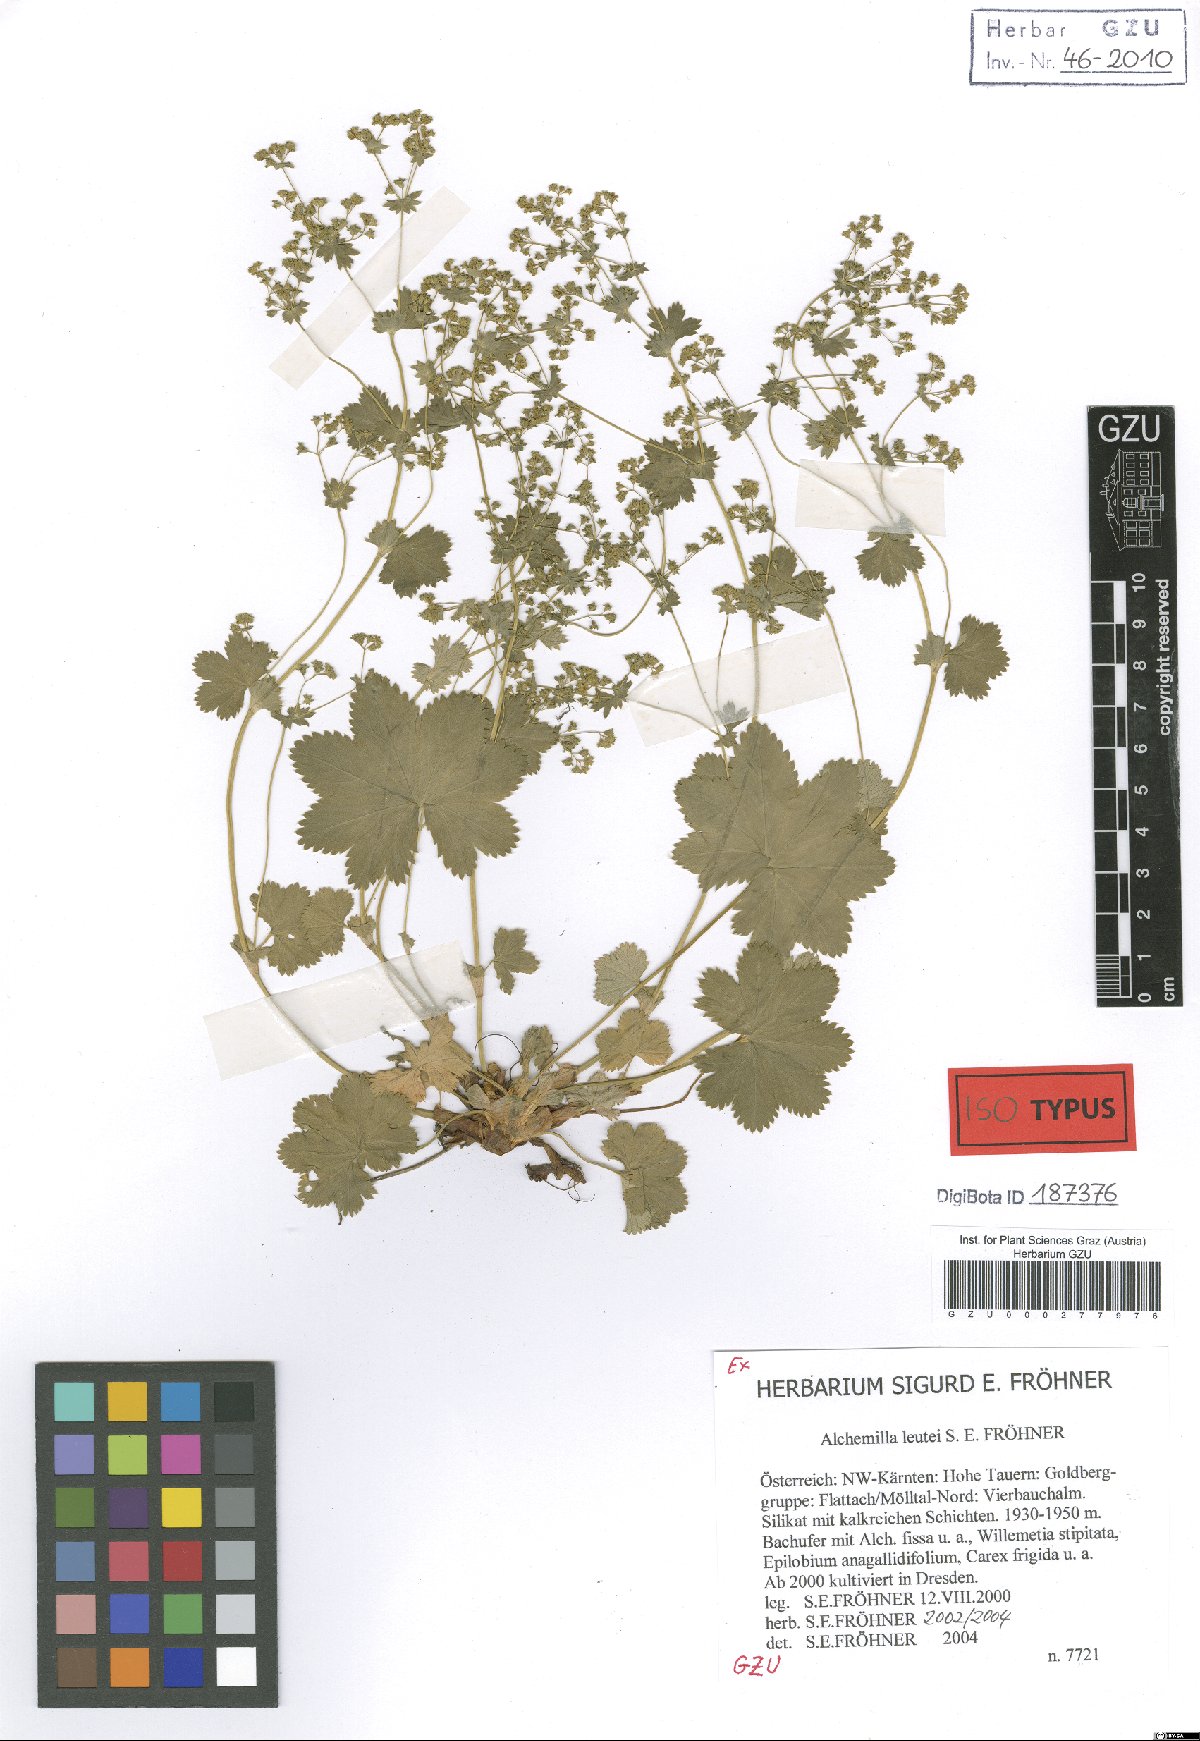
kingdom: Plantae
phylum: Tracheophyta
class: Magnoliopsida
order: Rosales
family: Rosaceae
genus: Alchemilla
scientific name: Alchemilla leutei
